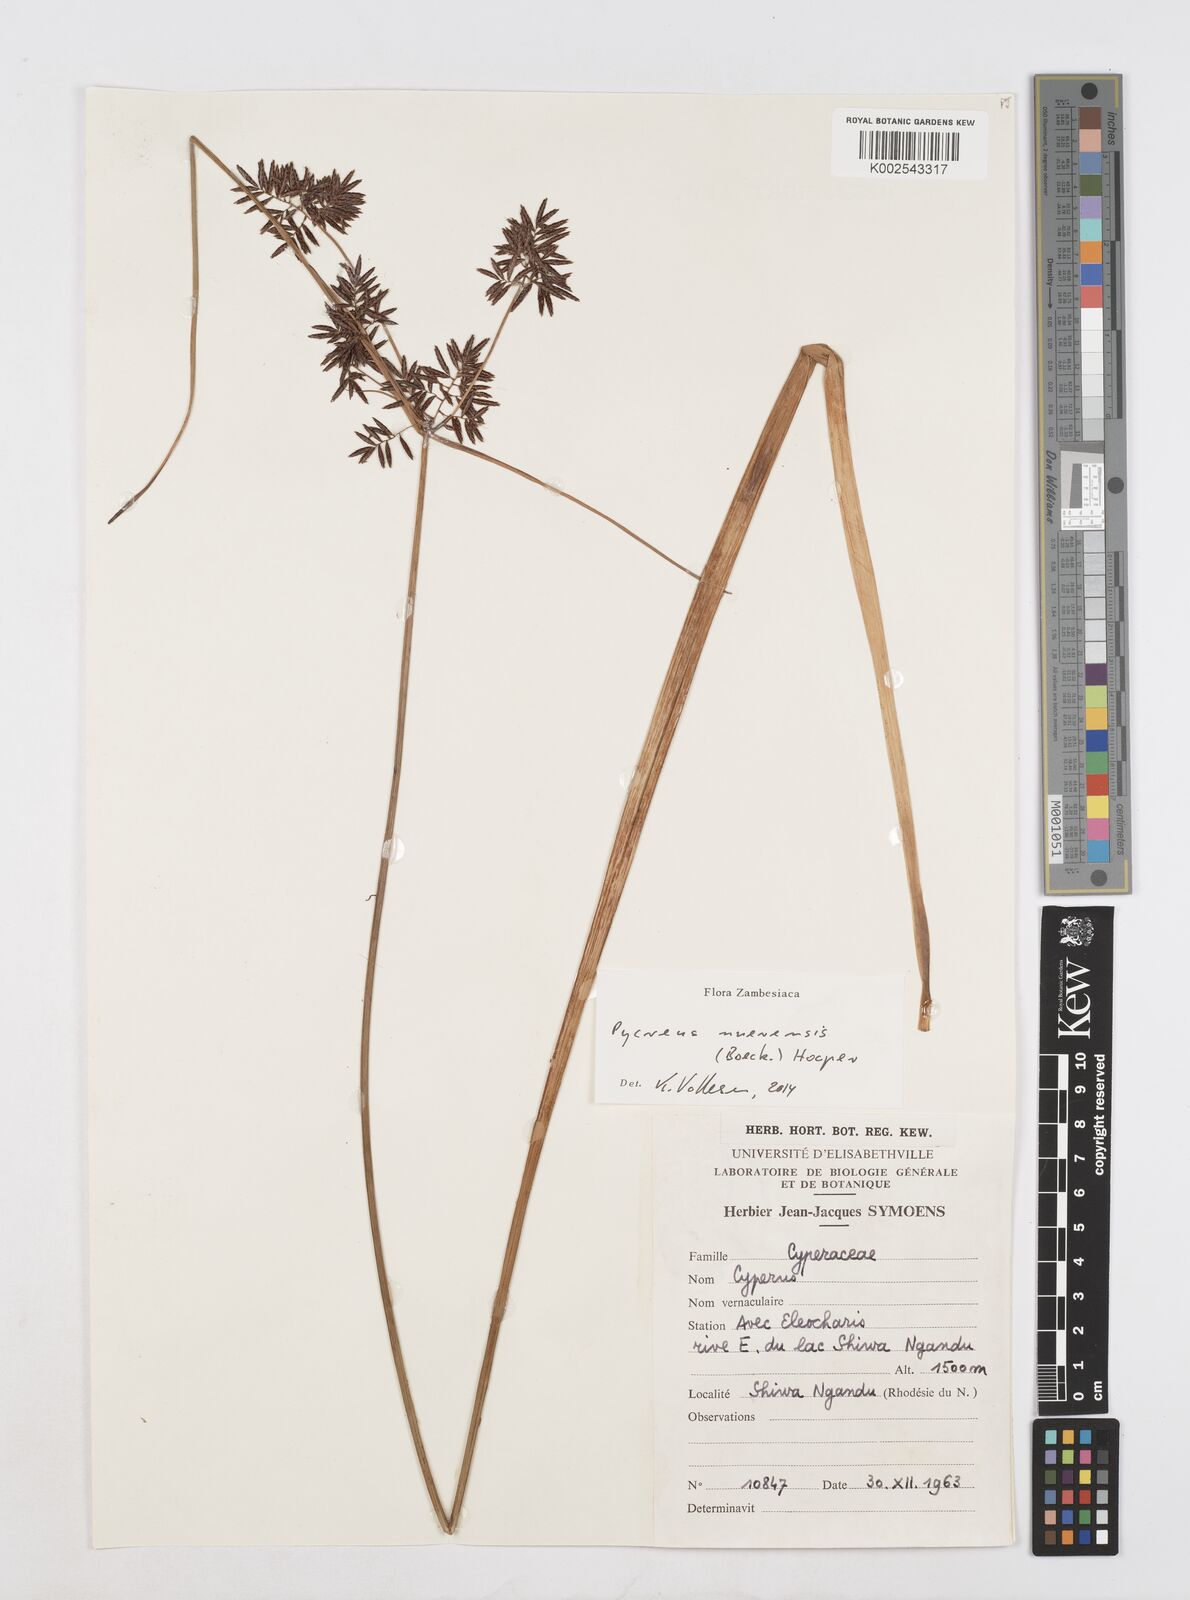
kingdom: Plantae
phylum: Tracheophyta
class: Liliopsida
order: Poales
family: Cyperaceae
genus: Cyperus
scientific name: Cyperus nuerensis
